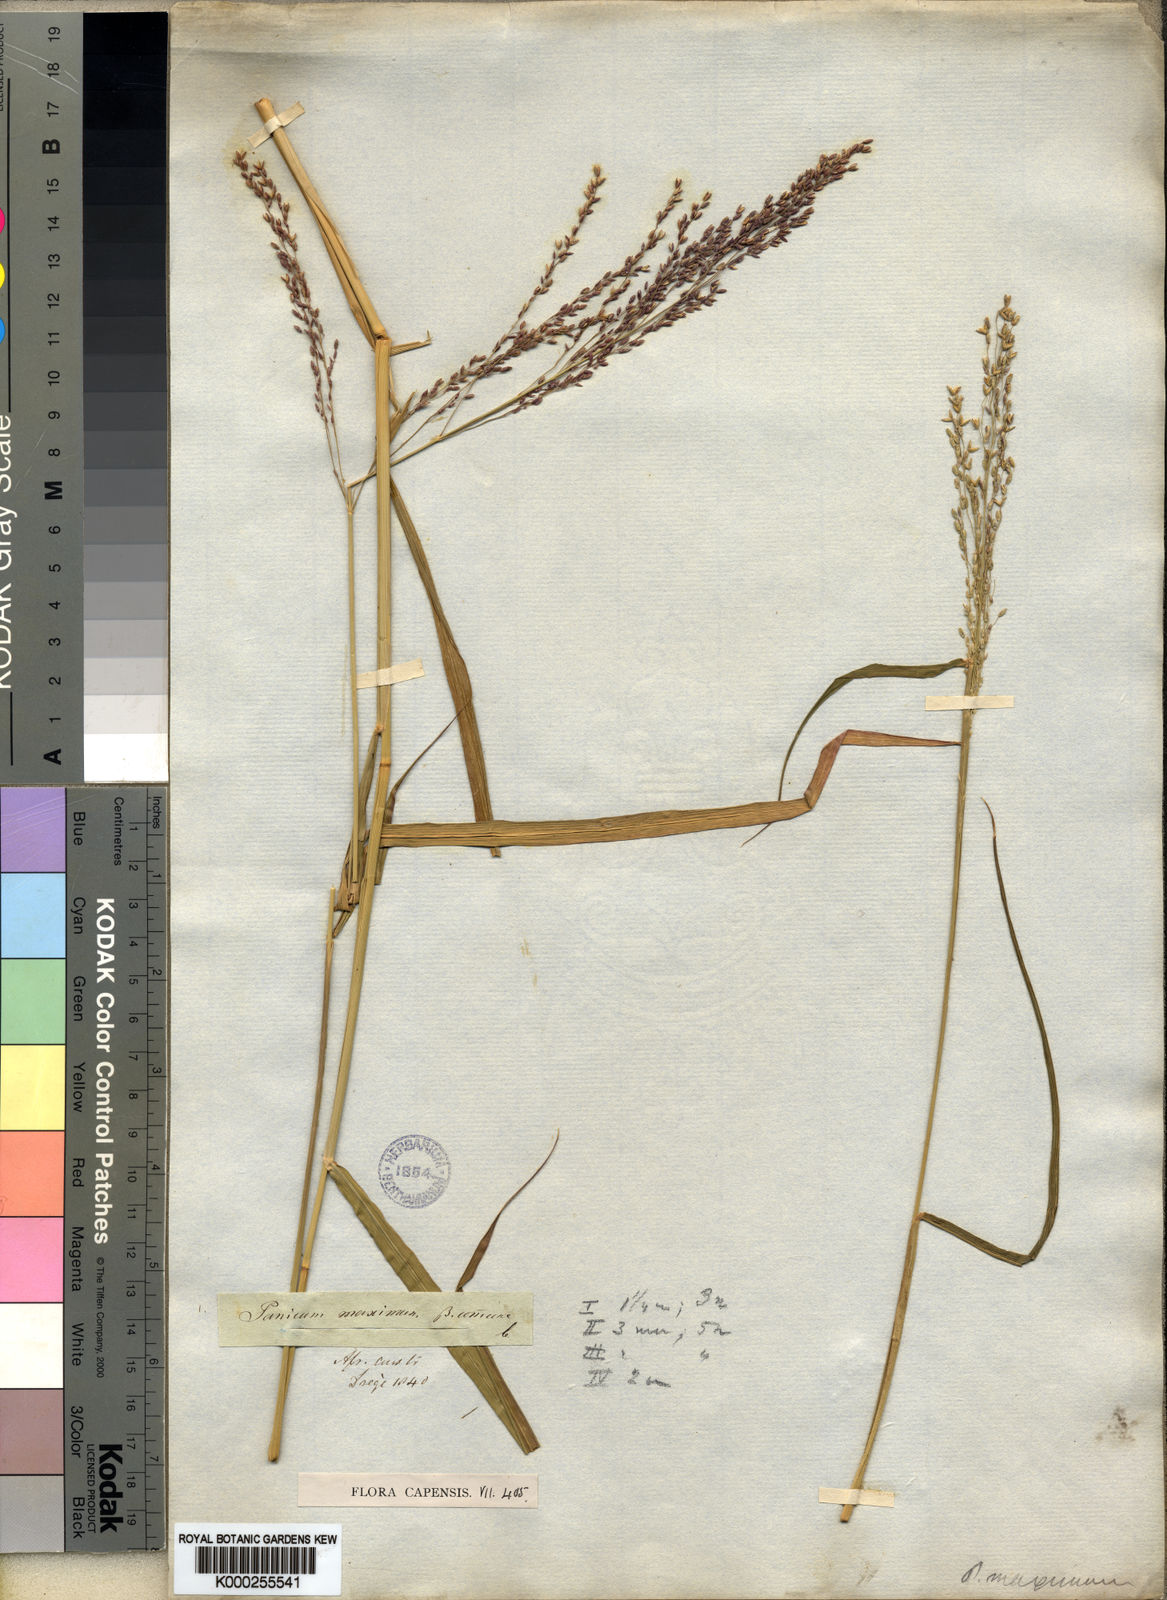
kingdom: Plantae
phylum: Tracheophyta
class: Liliopsida
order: Poales
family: Poaceae
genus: Megathyrsus
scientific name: Megathyrsus maximus
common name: Guineagrass
